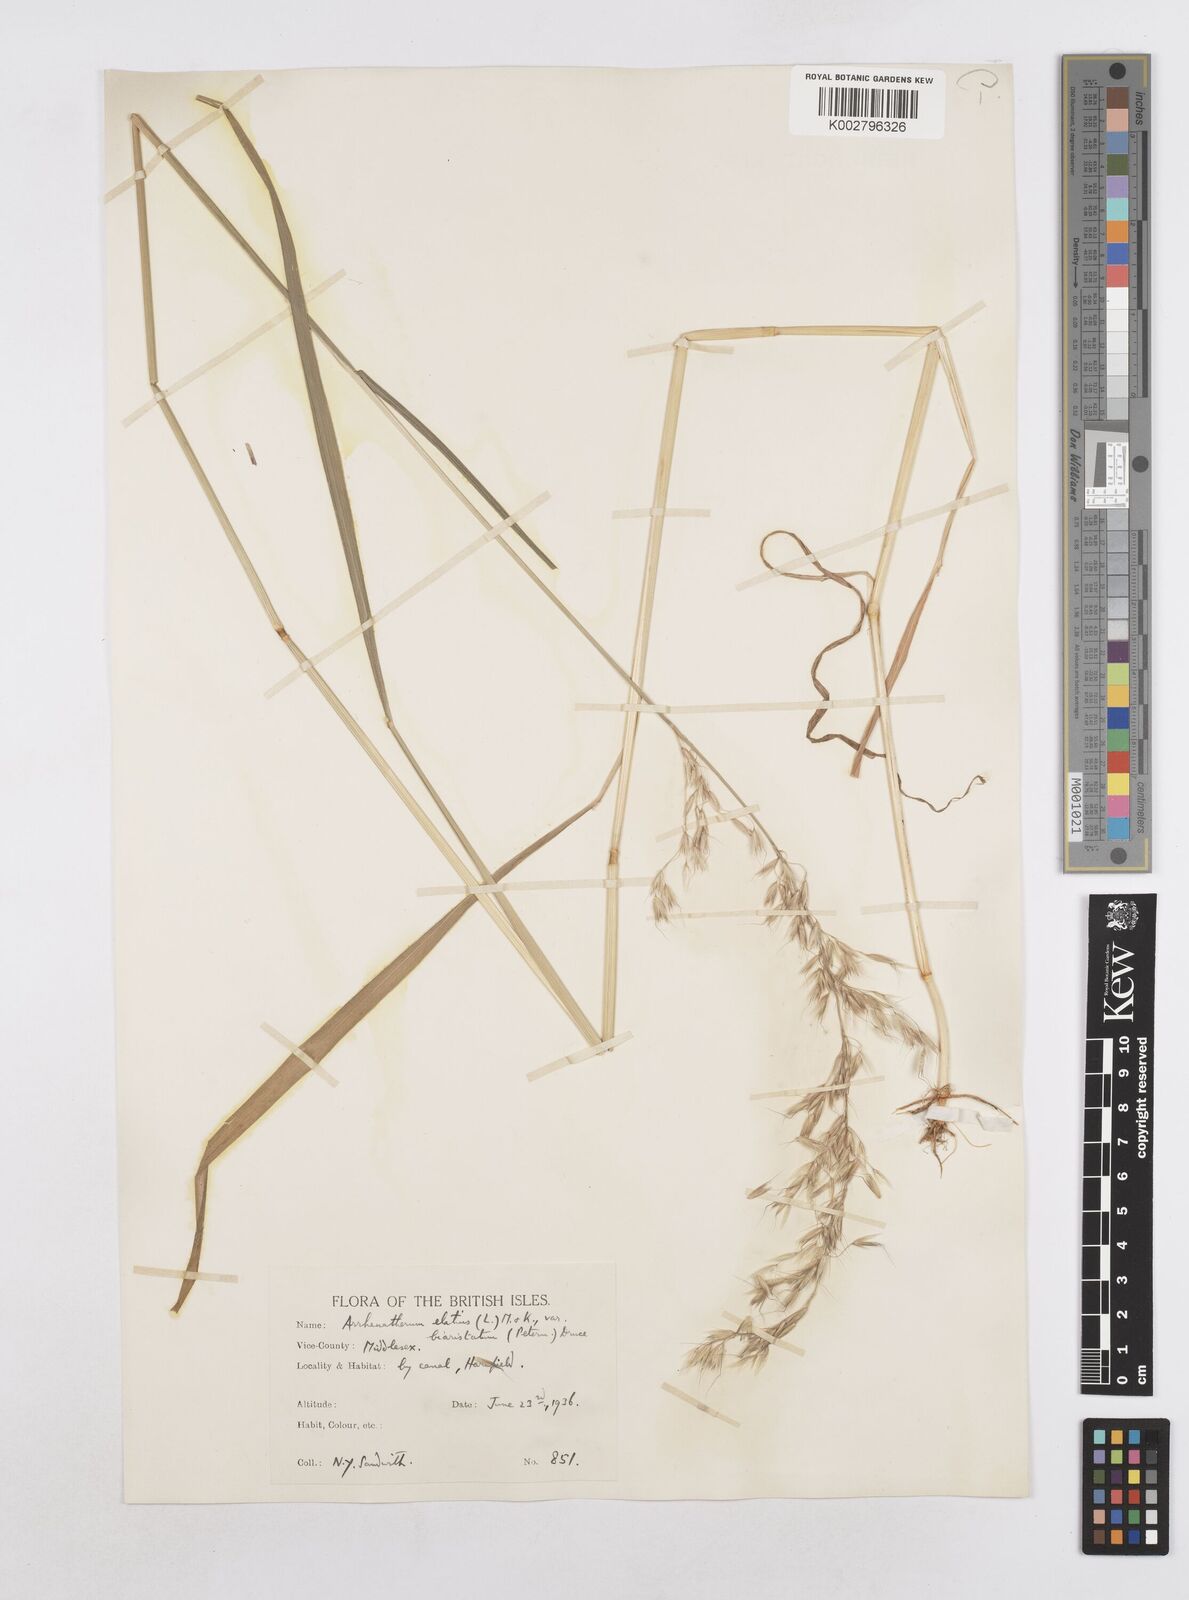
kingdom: Plantae
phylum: Tracheophyta
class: Liliopsida
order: Poales
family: Poaceae
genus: Arrhenatherum
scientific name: Arrhenatherum elatius
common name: Tall oatgrass
